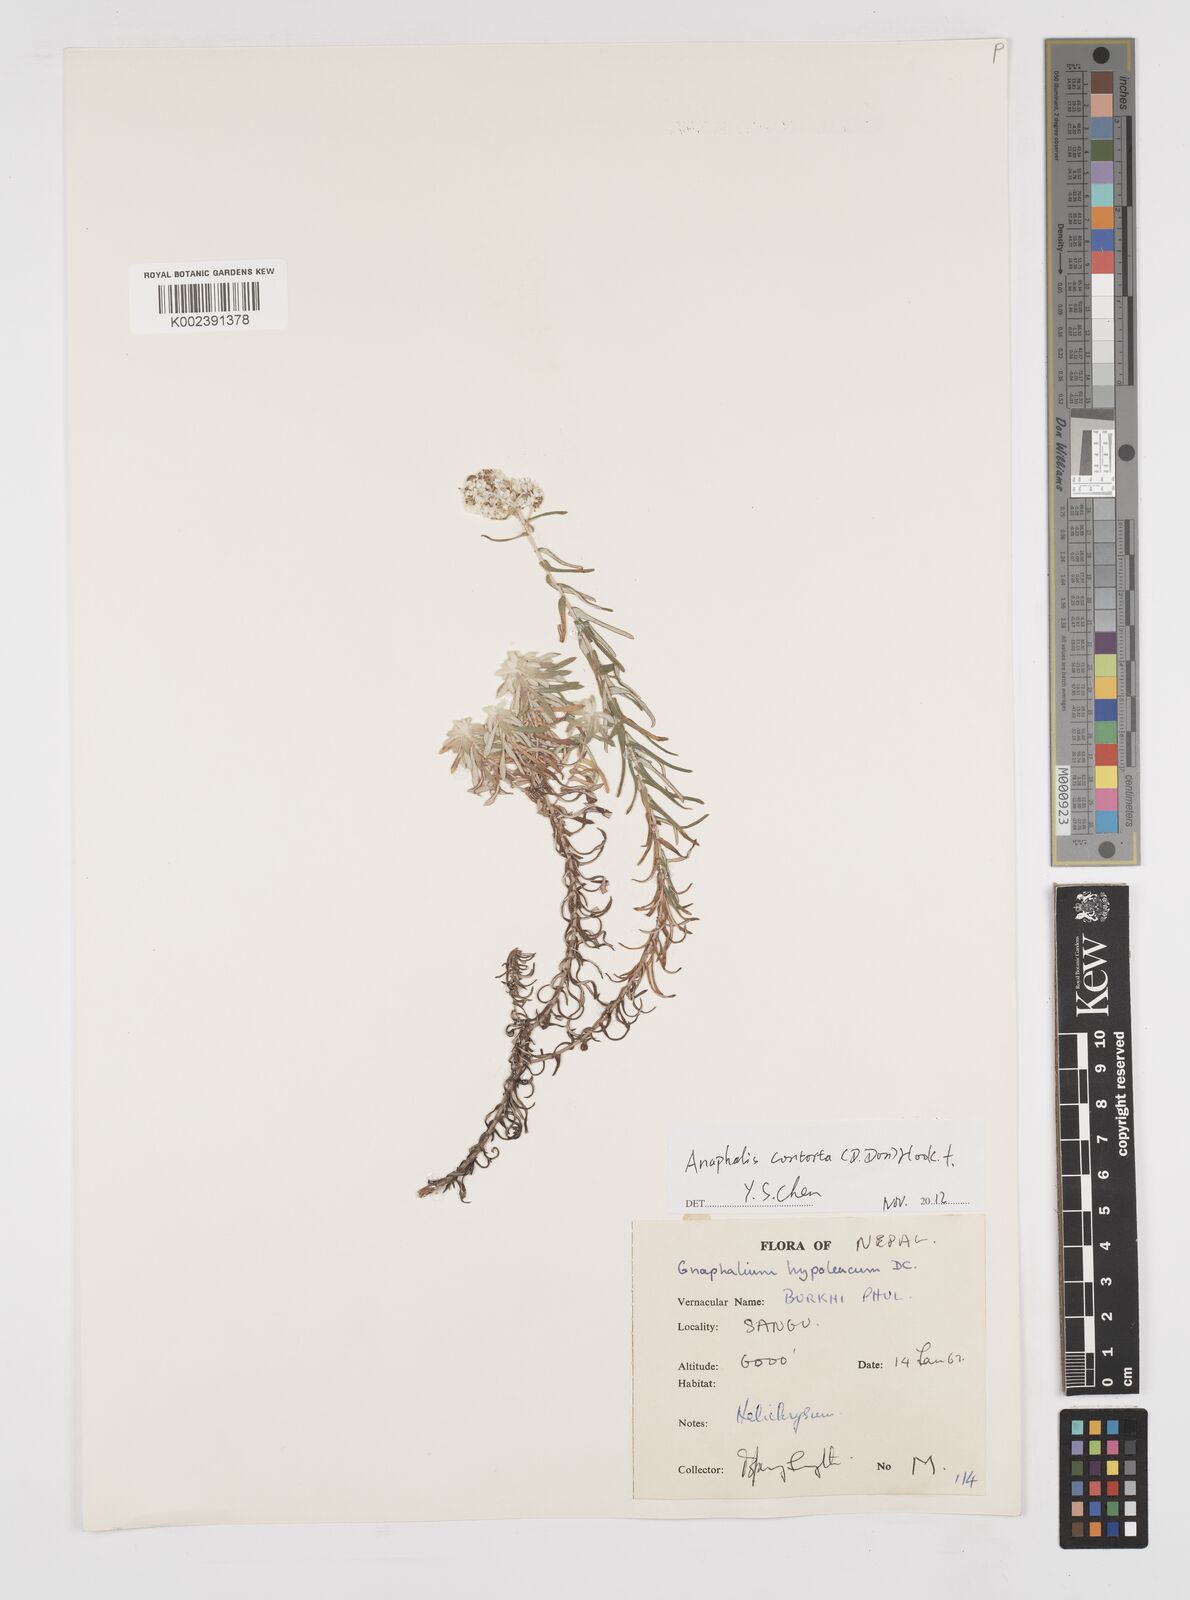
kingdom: Plantae
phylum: Tracheophyta
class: Magnoliopsida
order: Asterales
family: Asteraceae
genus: Pseudognaphalium
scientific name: Pseudognaphalium hypoleucum
